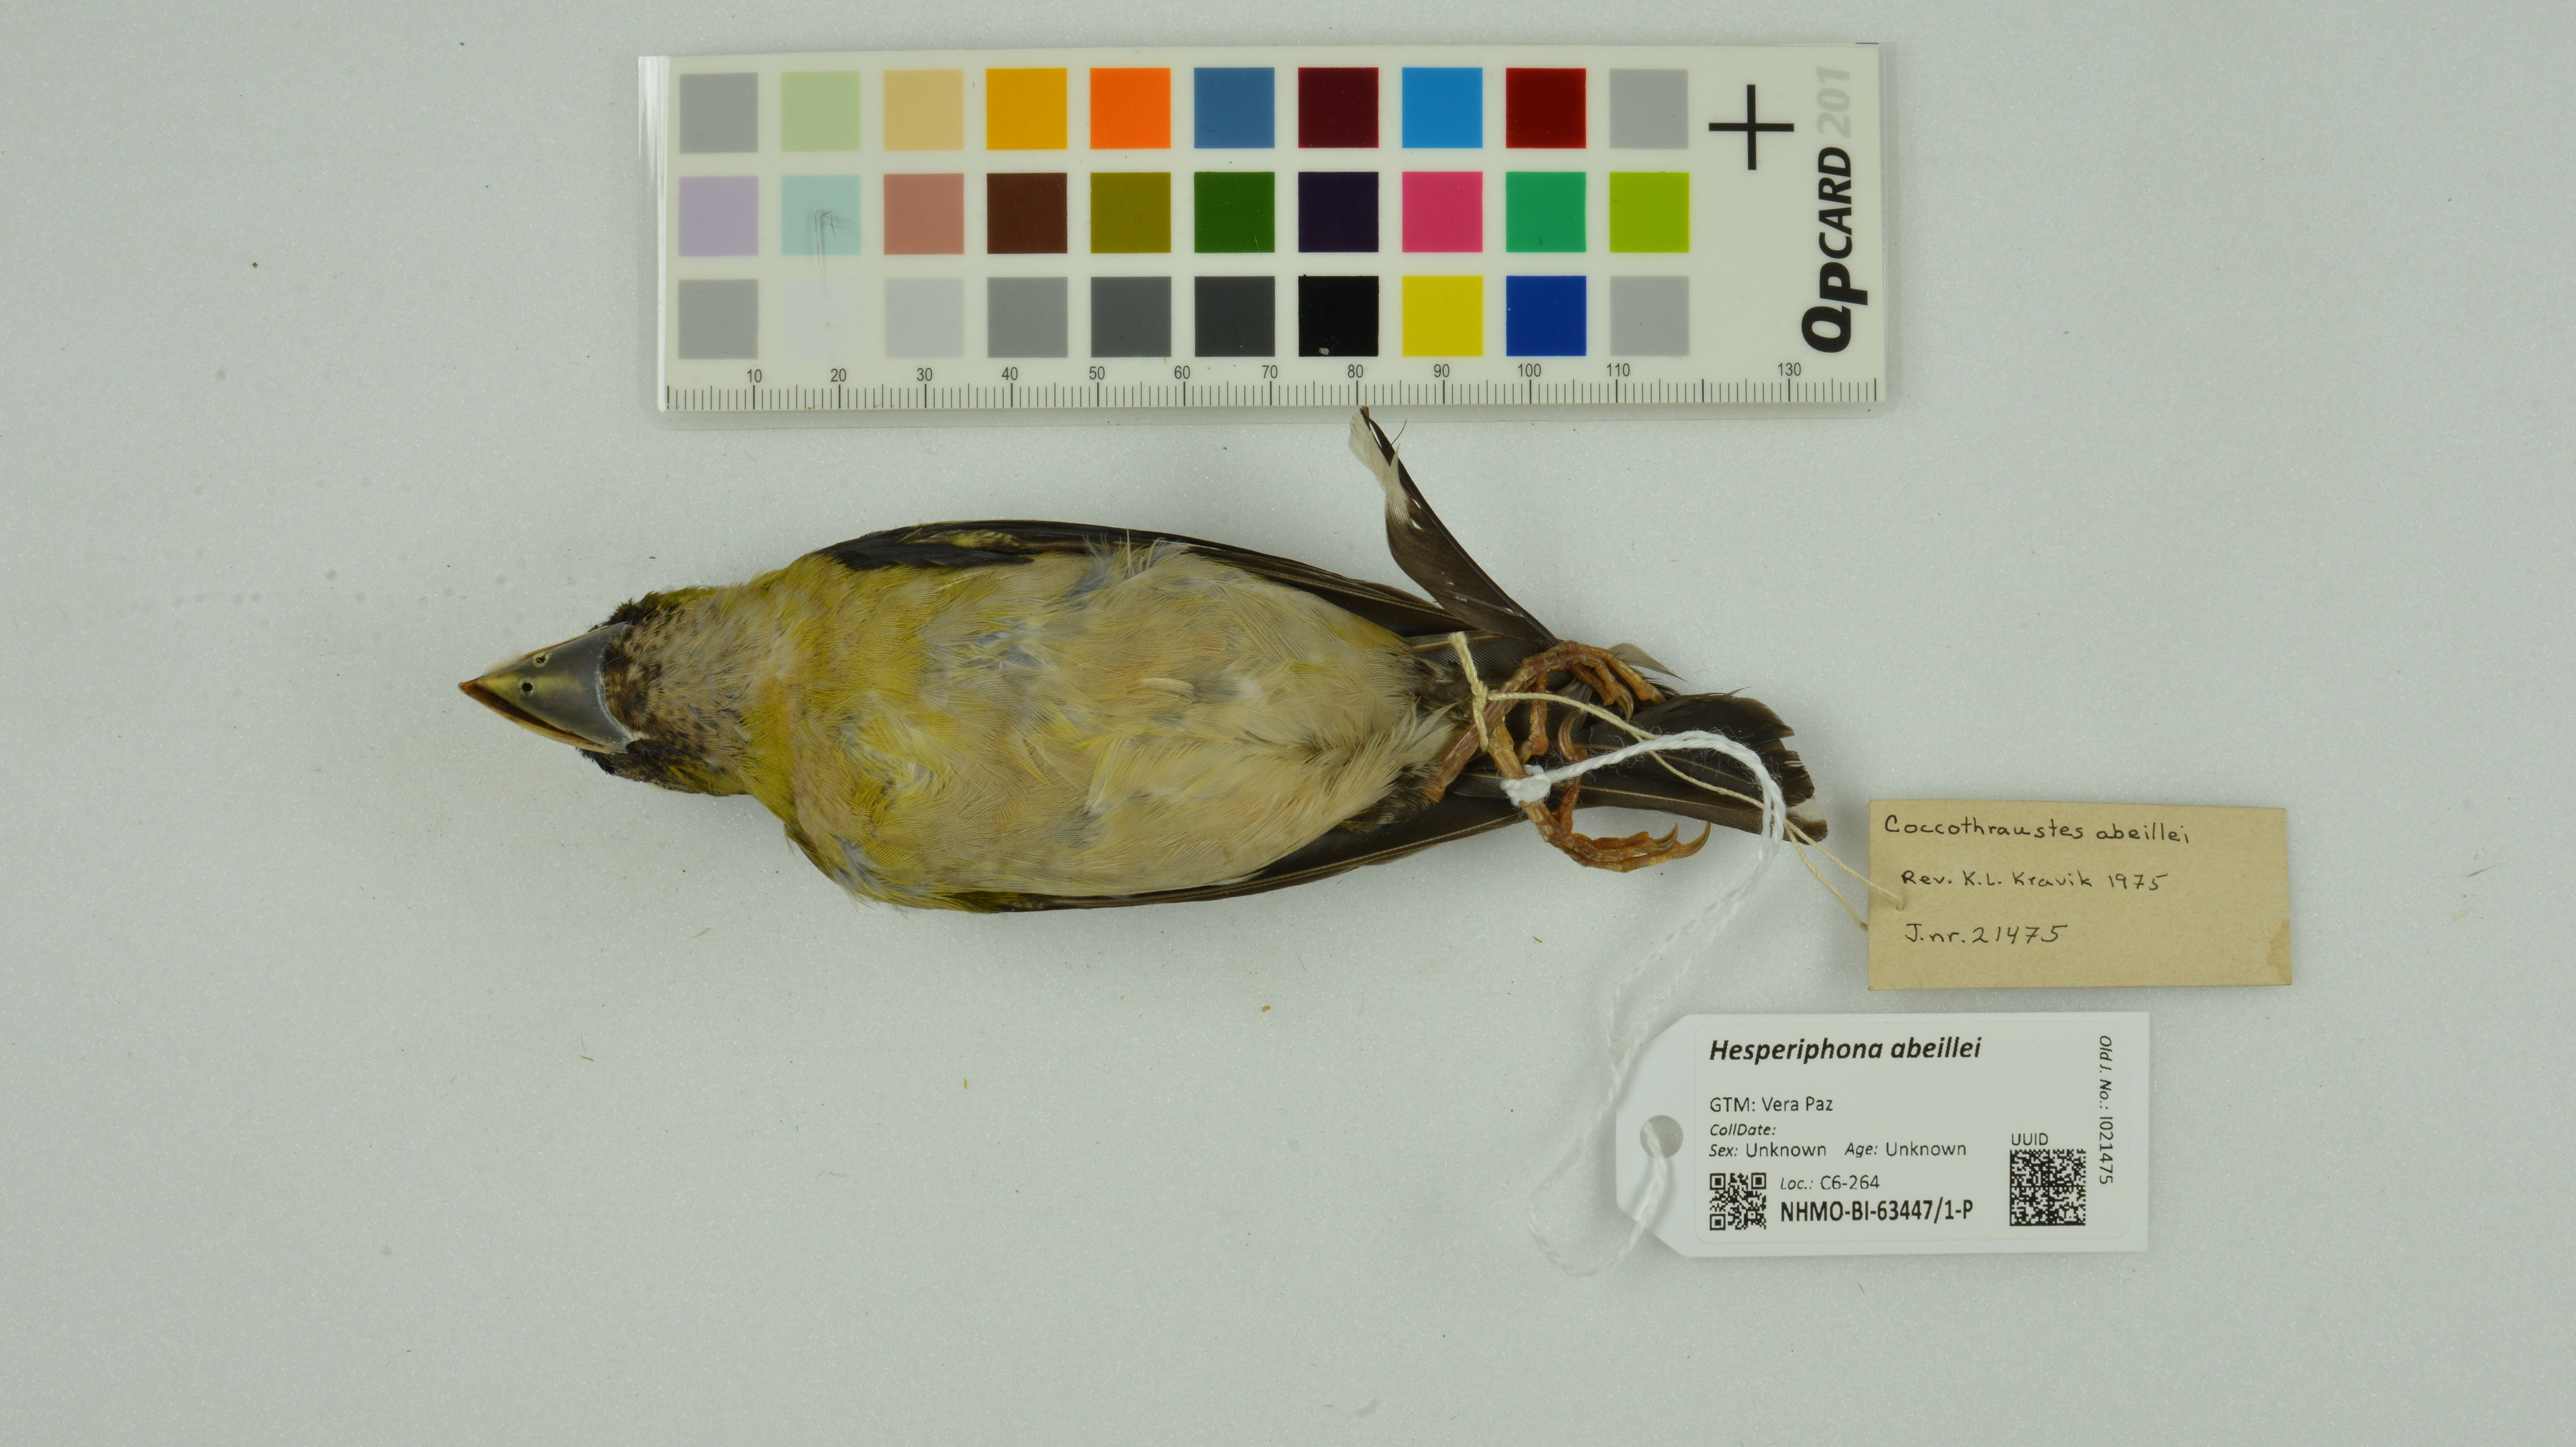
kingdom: Animalia
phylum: Chordata
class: Aves
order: Passeriformes
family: Fringillidae
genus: Hesperiphona
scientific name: Hesperiphona abeillei
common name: Hooded grosbeak
